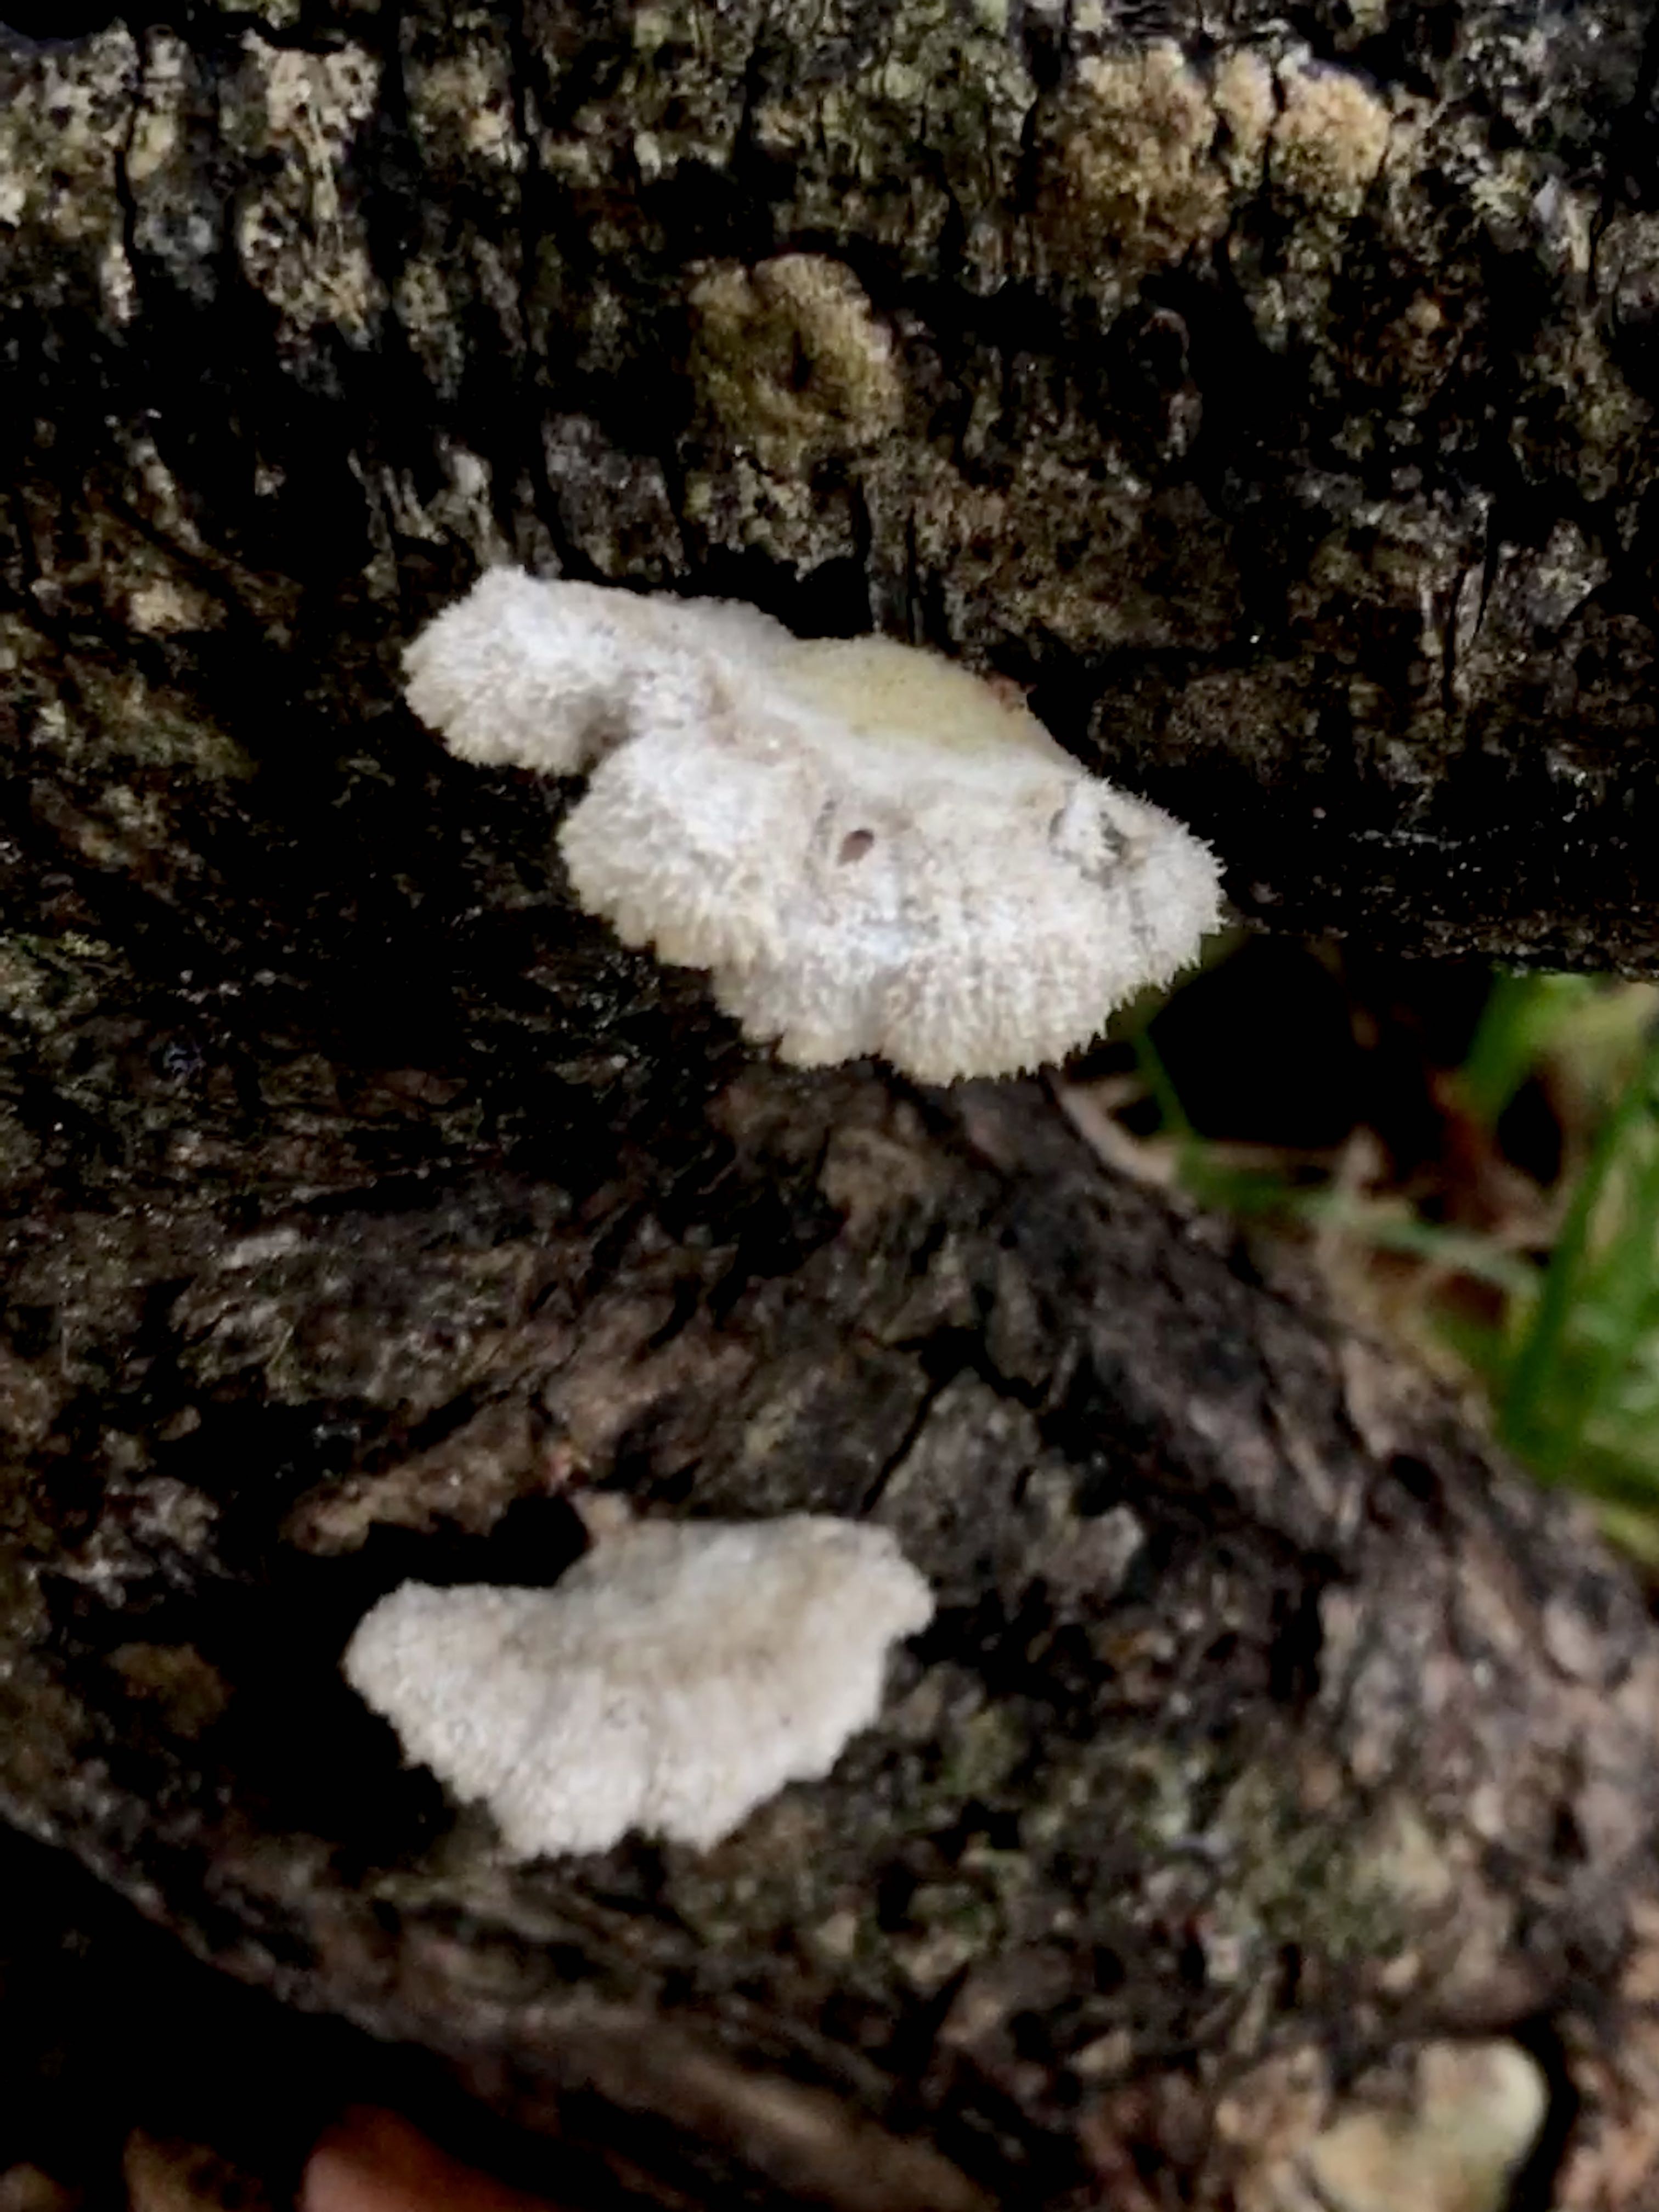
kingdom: Fungi
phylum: Basidiomycota
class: Agaricomycetes
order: Agaricales
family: Schizophyllaceae
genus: Schizophyllum
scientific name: Schizophyllum commune
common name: kløvblad
